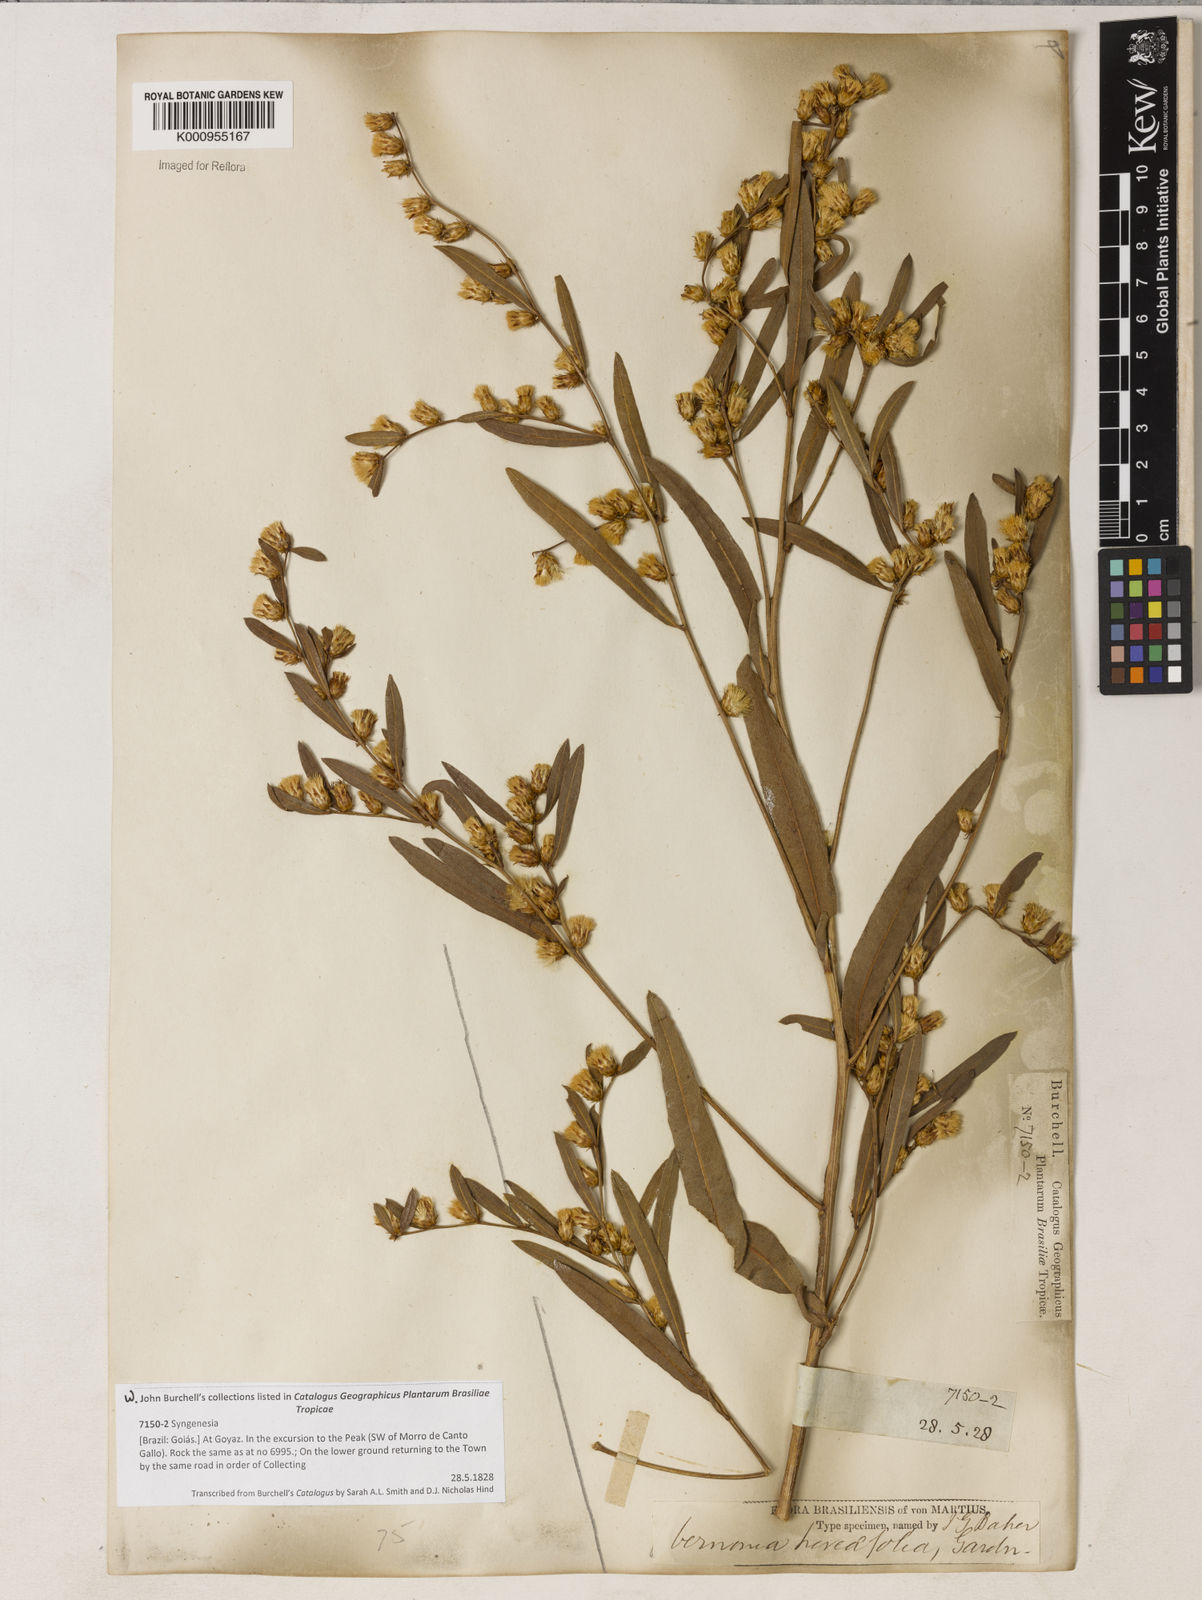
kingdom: Plantae
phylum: Tracheophyta
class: Magnoliopsida
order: Asterales
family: Asteraceae
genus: Lessingianthus
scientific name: Lessingianthus hoveifolius
